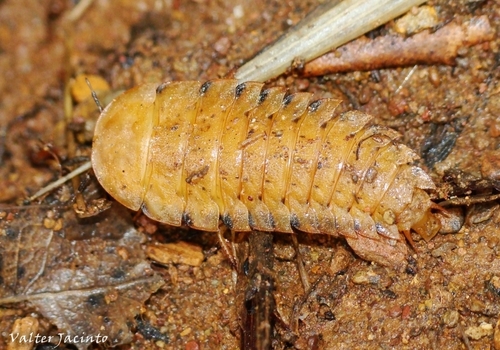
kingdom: Animalia
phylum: Arthropoda
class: Insecta
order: Coleoptera
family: Silphidae
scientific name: Silphidae
